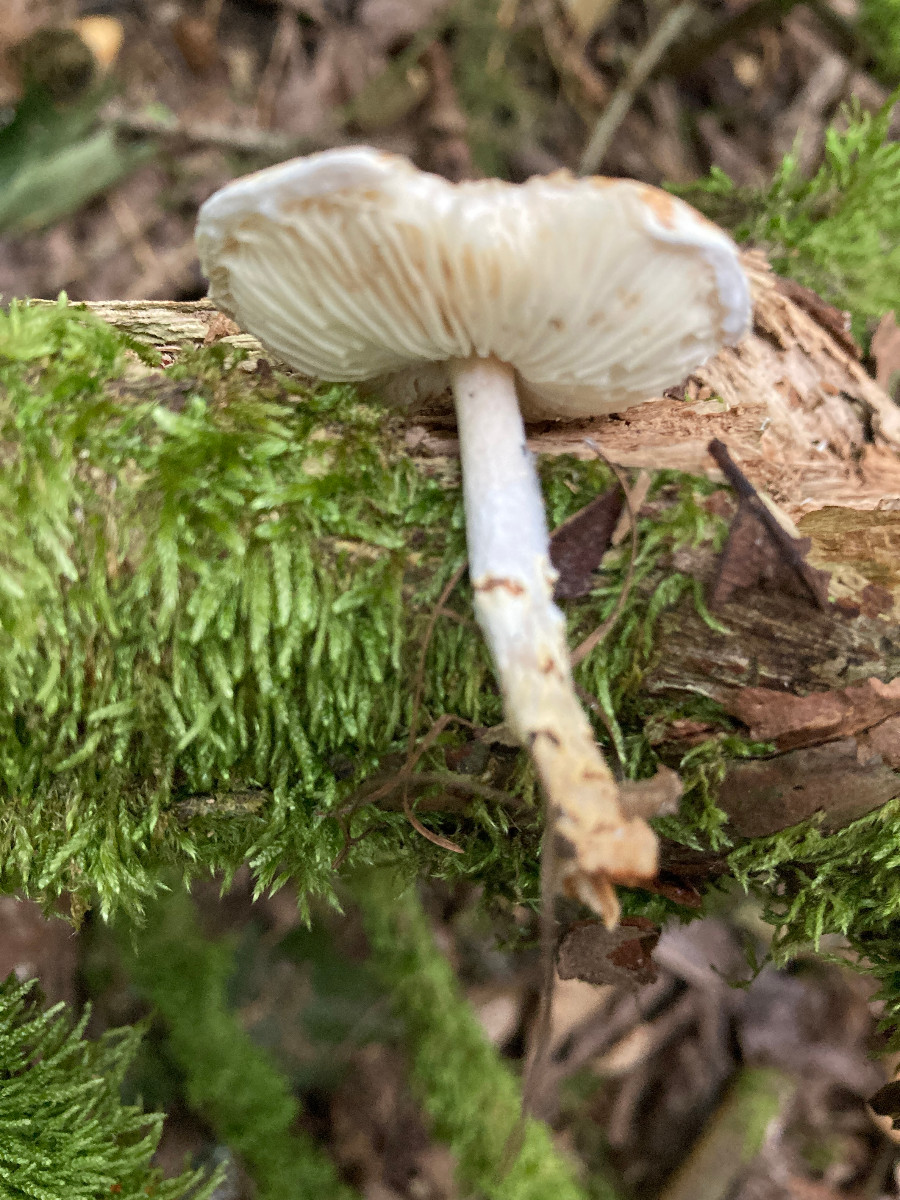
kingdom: Fungi
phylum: Basidiomycota
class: Agaricomycetes
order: Agaricales
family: Agaricaceae
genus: Lepiota
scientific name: Lepiota magnispora
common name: gulfnugget parasolhat
